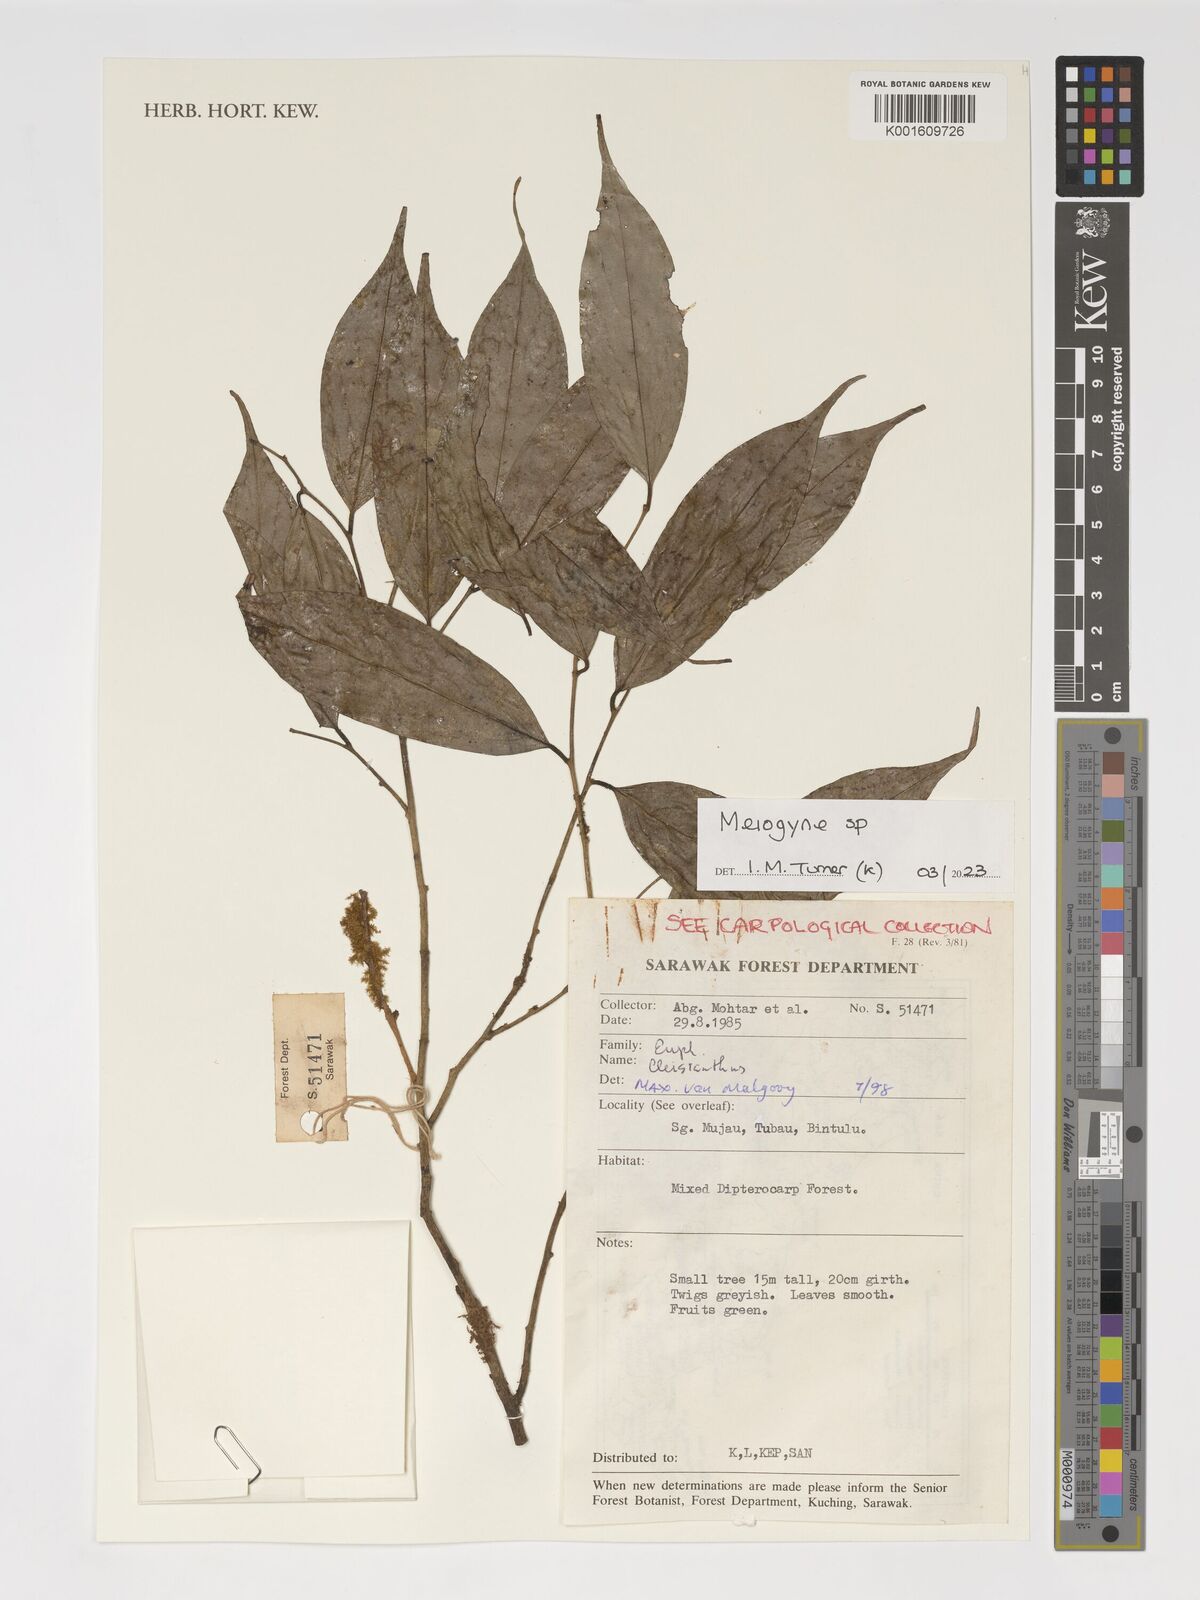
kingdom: Plantae
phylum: Tracheophyta
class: Magnoliopsida
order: Magnoliales
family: Annonaceae
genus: Meiogyne
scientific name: Meiogyne
